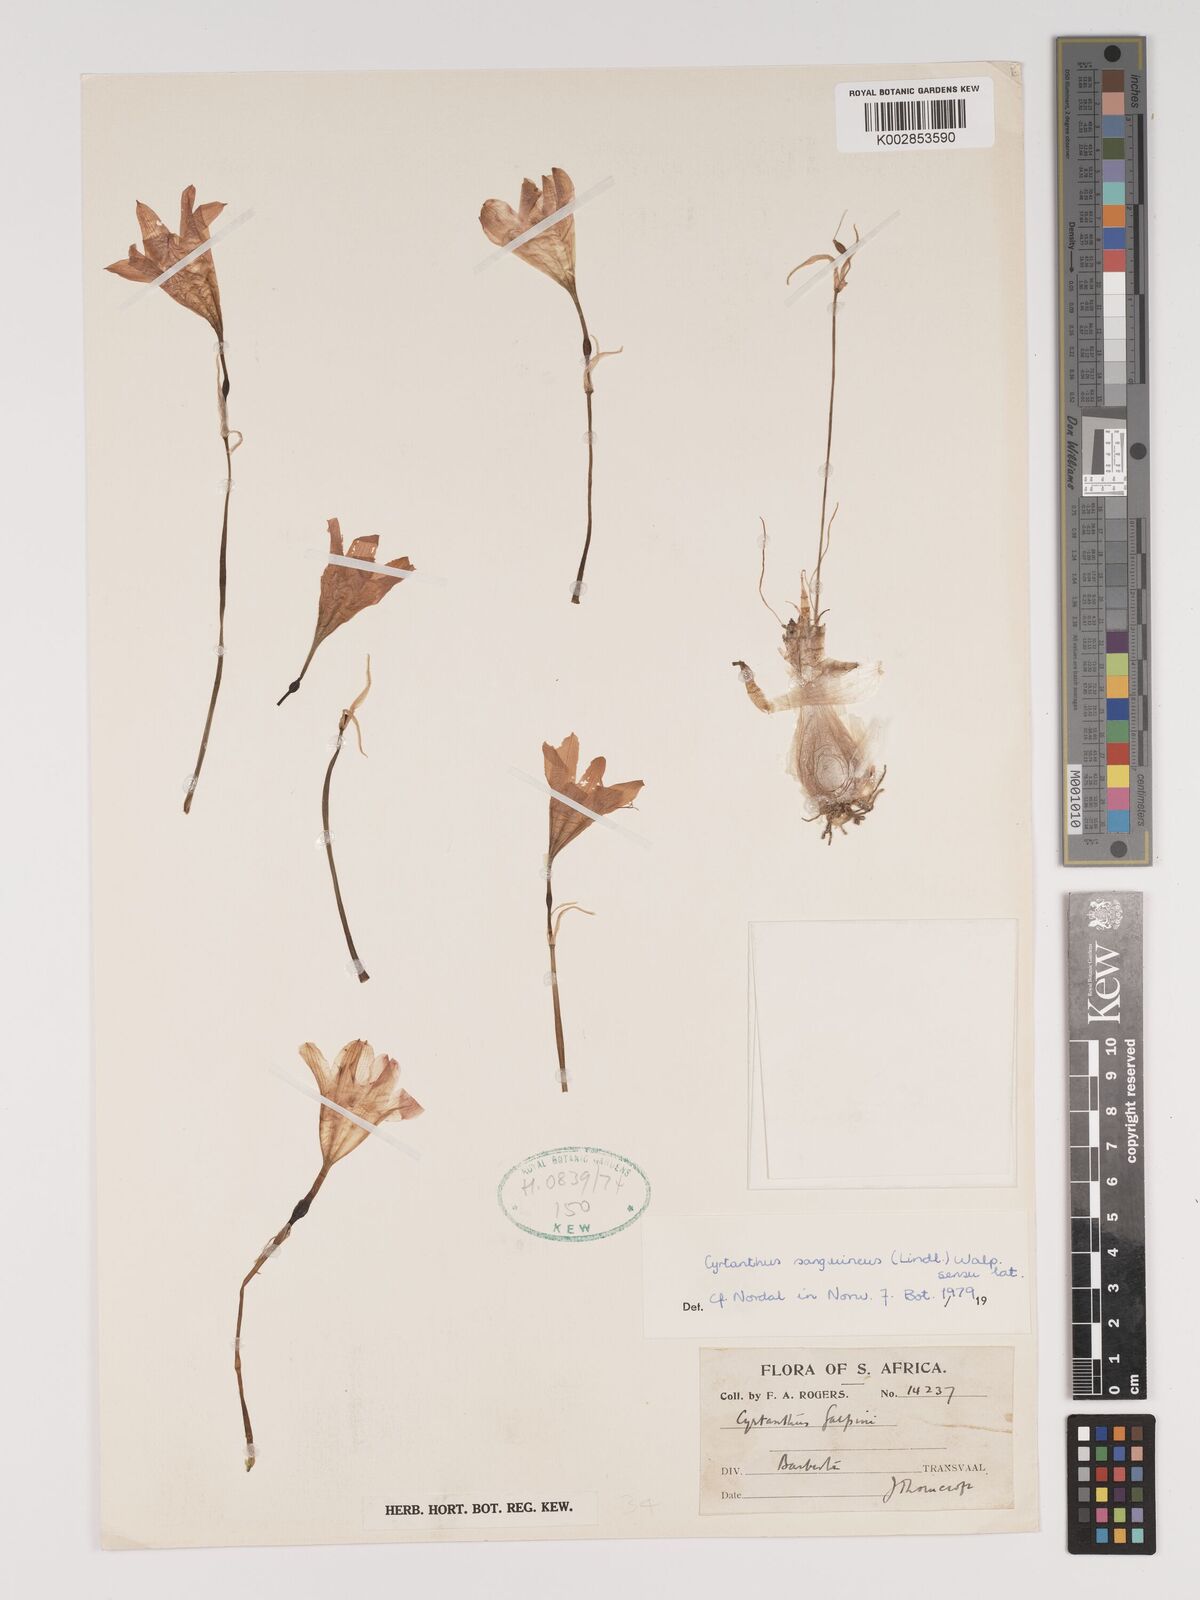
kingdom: Plantae
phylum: Tracheophyta
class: Liliopsida
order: Asparagales
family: Amaryllidaceae
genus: Cyrtanthus
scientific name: Cyrtanthus sanguineus
